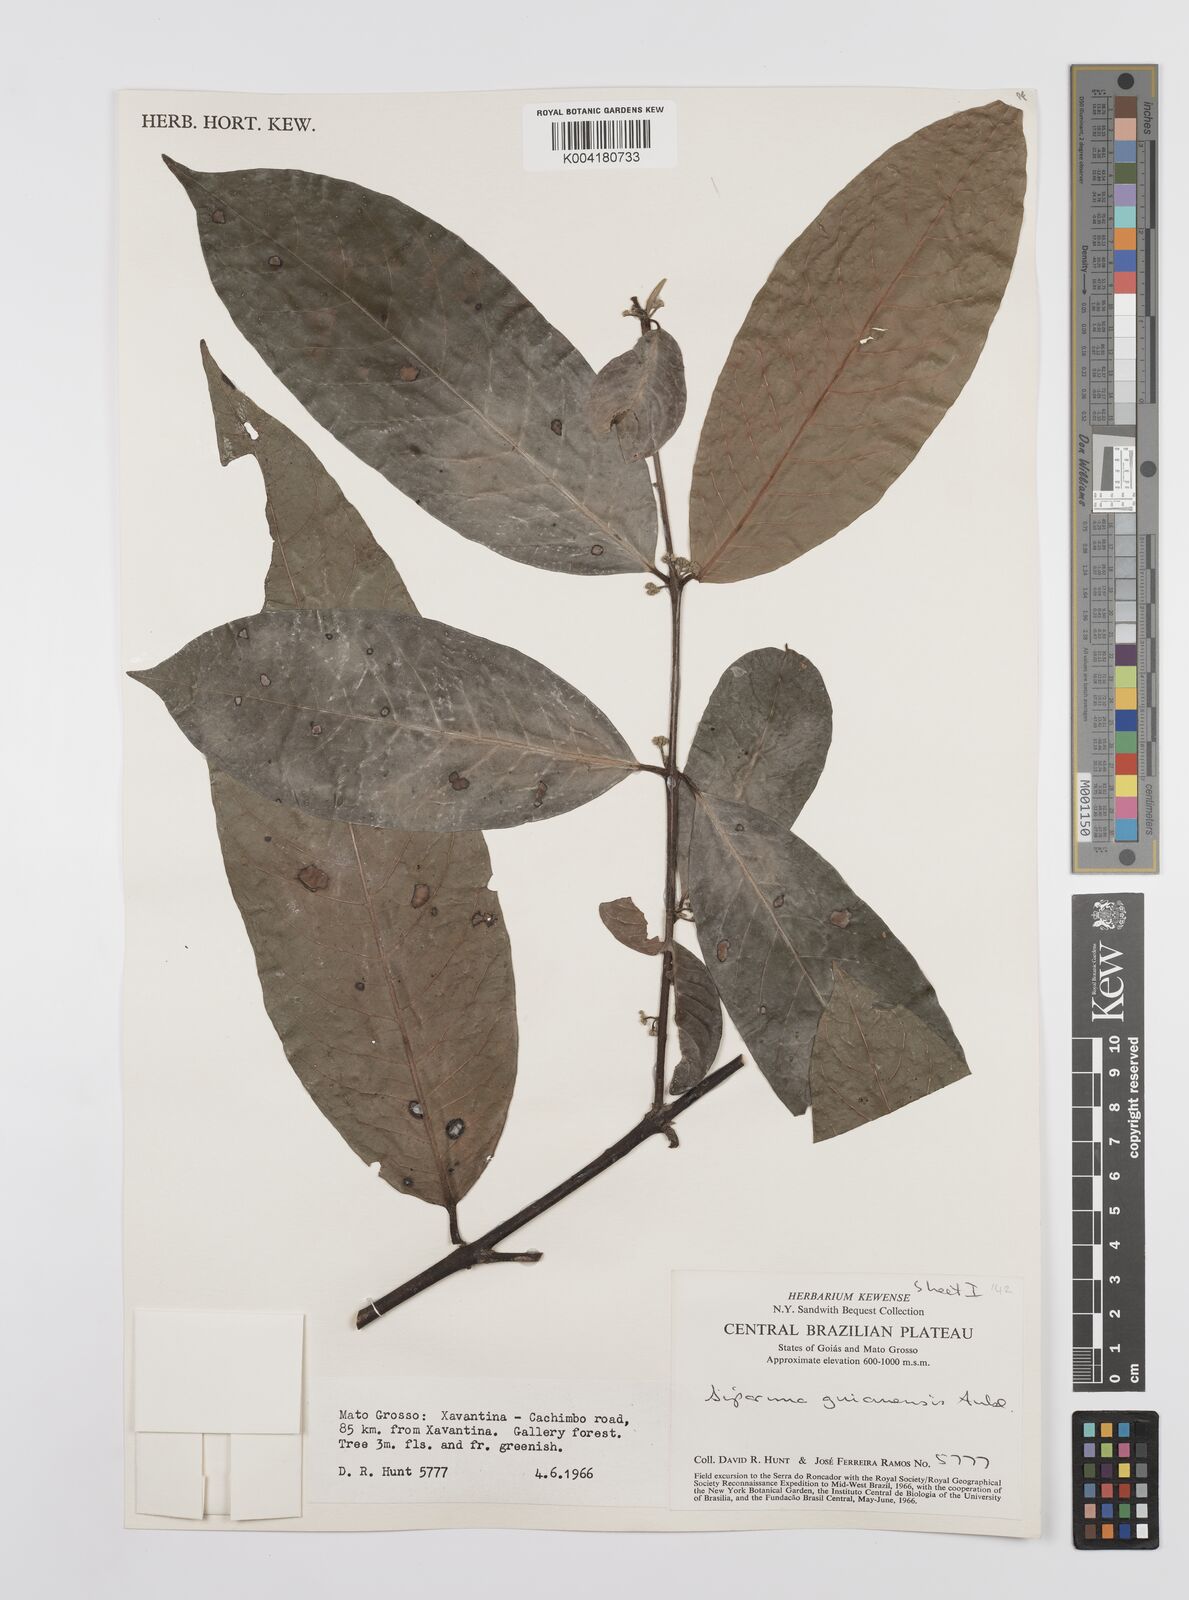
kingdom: Plantae
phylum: Tracheophyta
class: Magnoliopsida
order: Laurales
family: Siparunaceae
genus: Siparuna
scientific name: Siparuna guianensis
